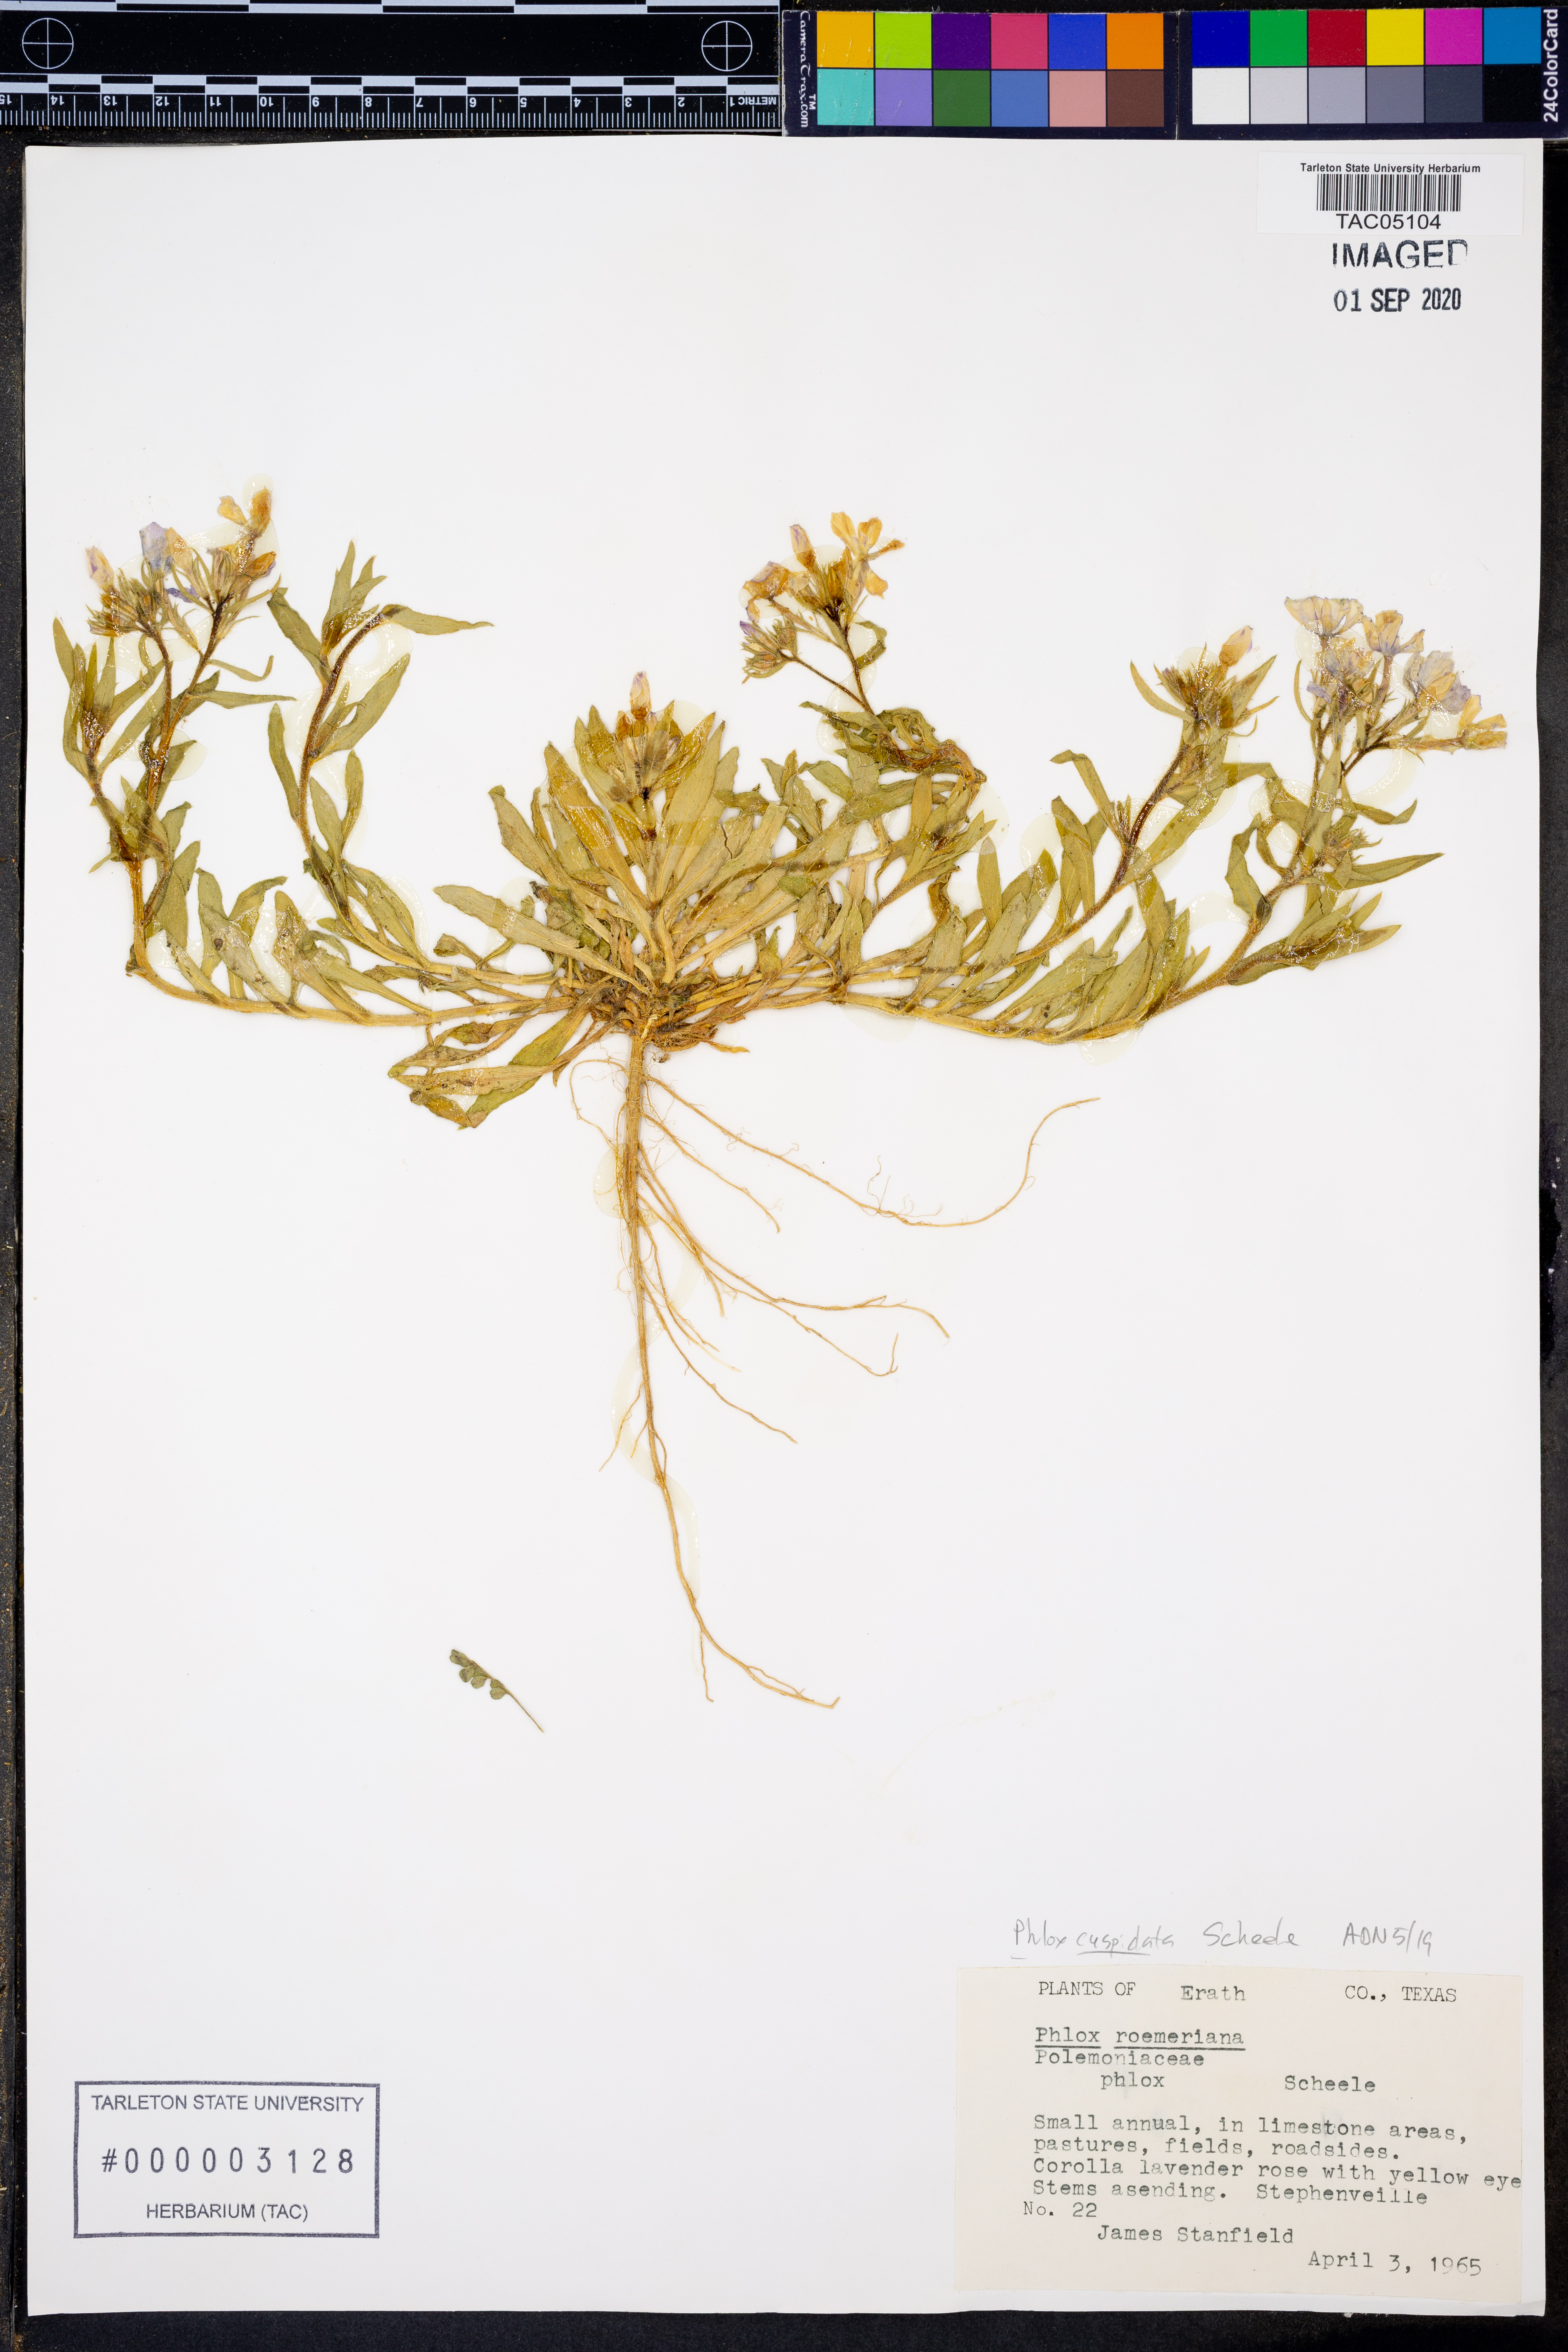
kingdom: Plantae
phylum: Tracheophyta
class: Magnoliopsida
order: Ericales
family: Polemoniaceae
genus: Phlox
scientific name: Phlox cuspidata
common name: Pointed phlox
